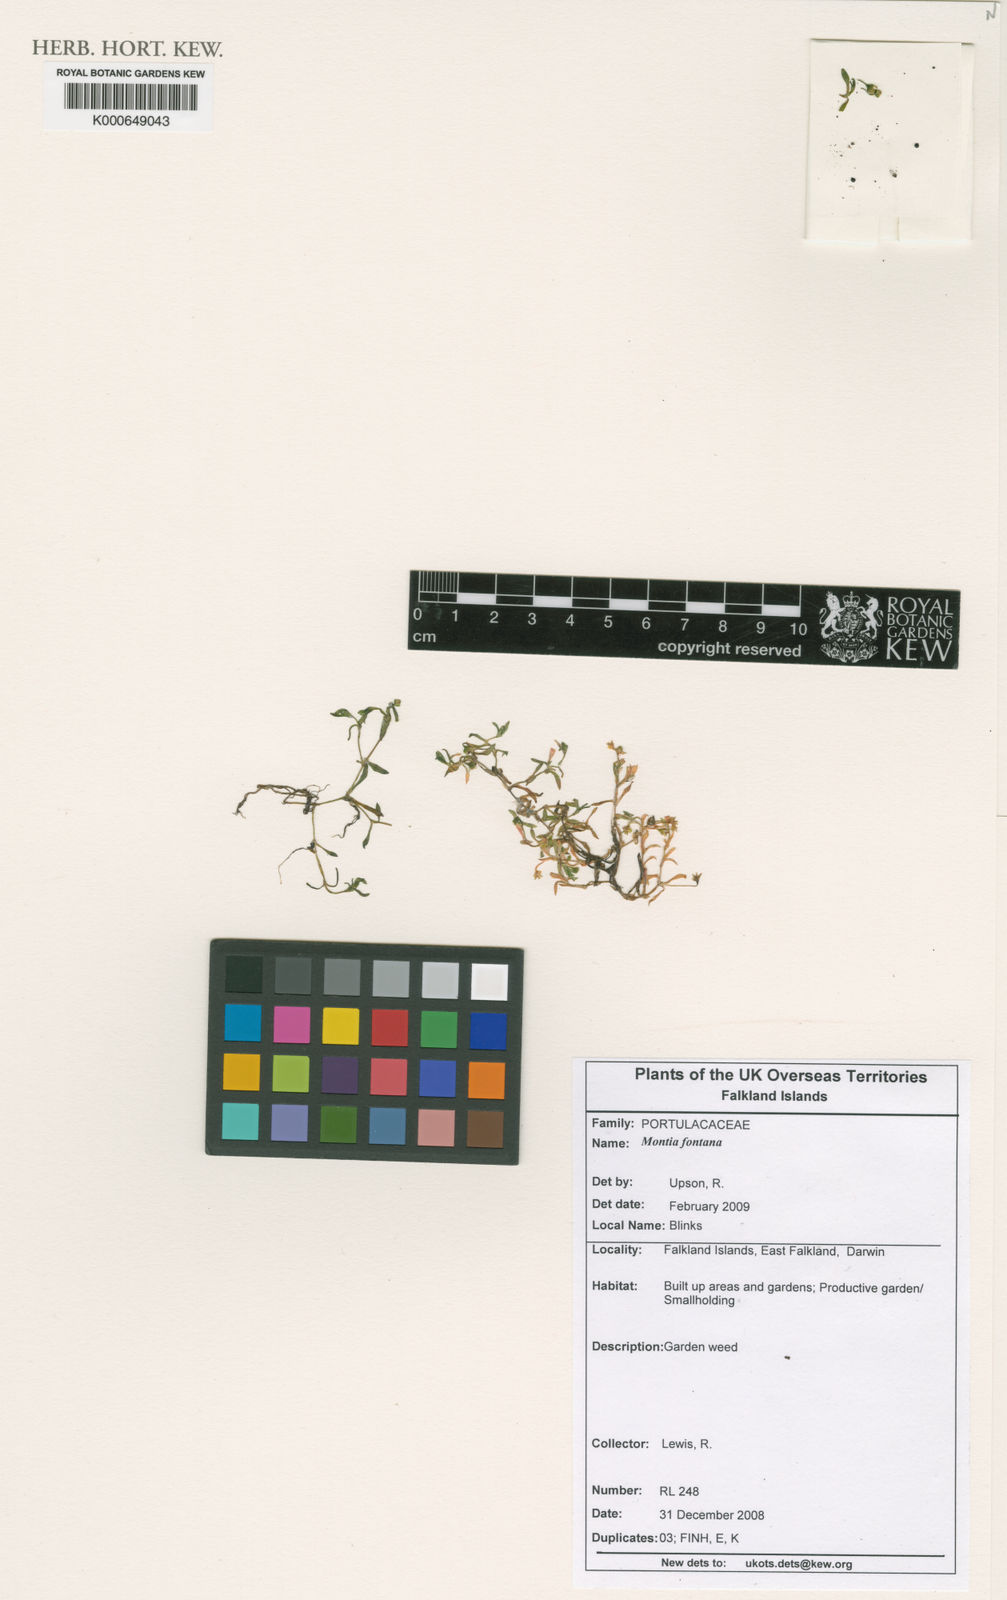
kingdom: Plantae
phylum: Tracheophyta
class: Magnoliopsida
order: Caryophyllales
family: Montiaceae
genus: Montia
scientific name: Montia fontana
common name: Blinks
